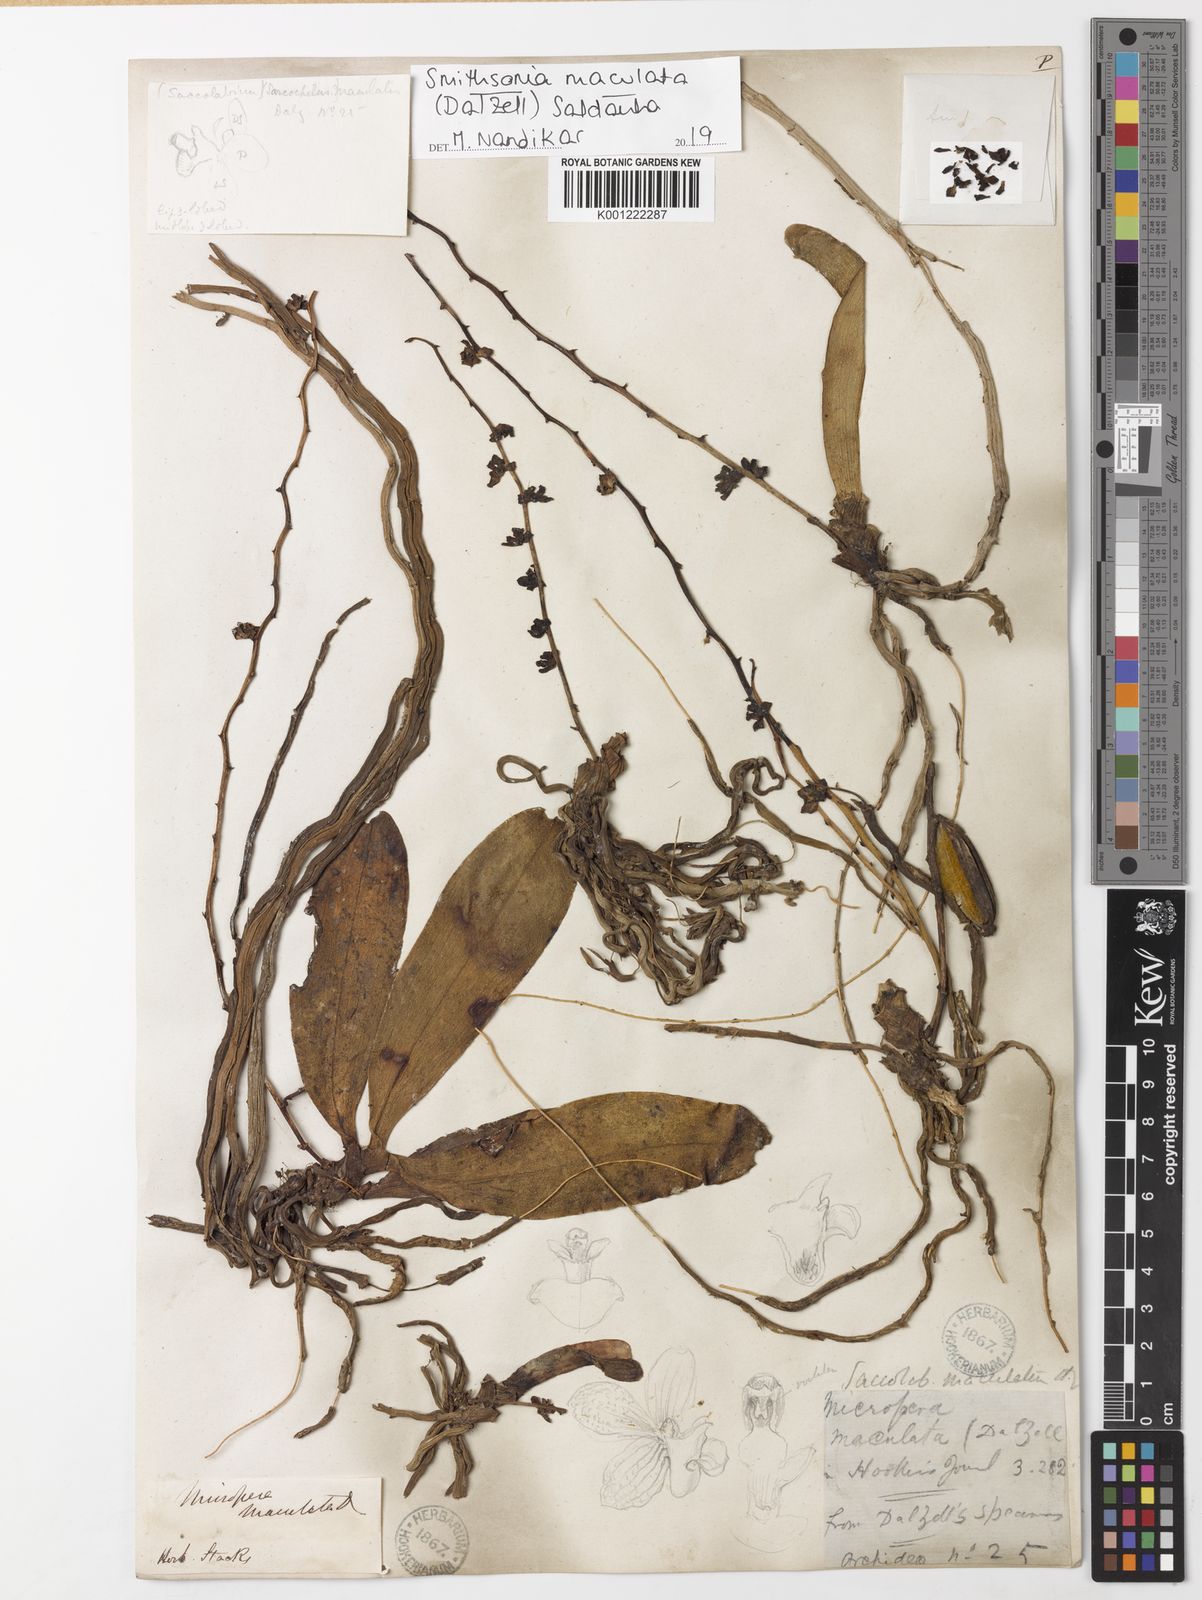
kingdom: Plantae
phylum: Tracheophyta
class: Liliopsida
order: Asparagales
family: Orchidaceae
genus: Smithsonia
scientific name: Smithsonia maculata
